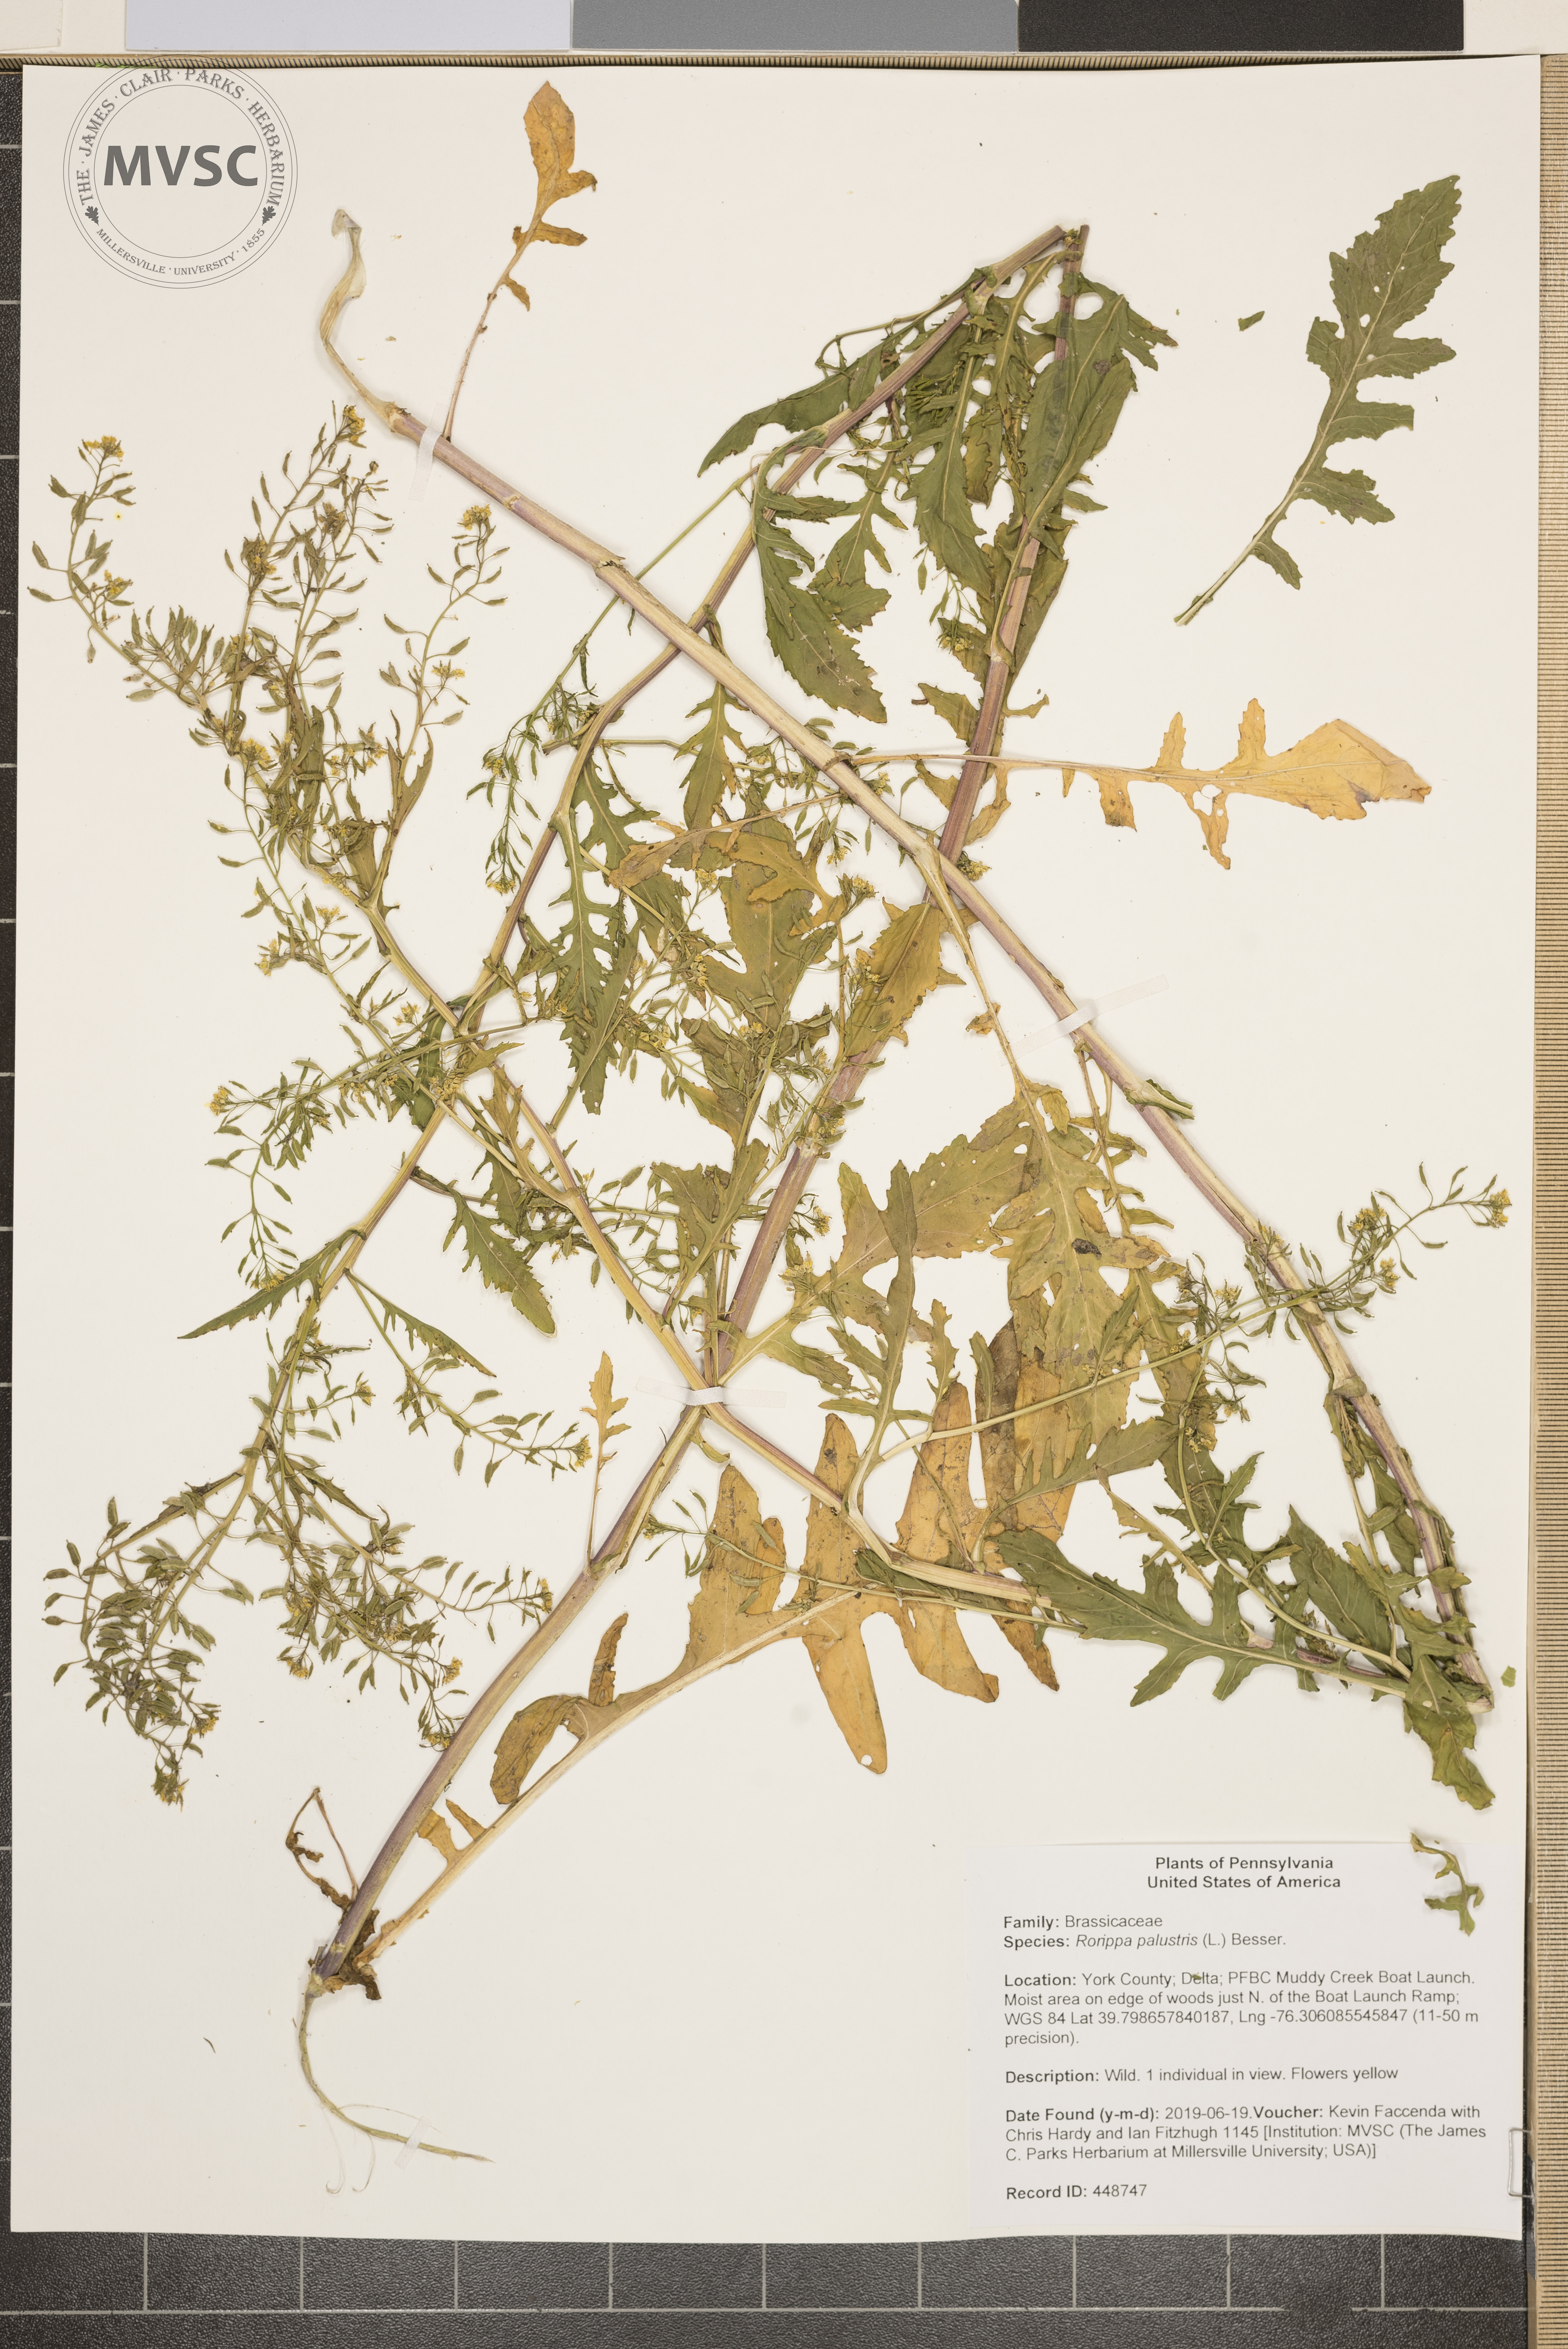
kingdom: Plantae
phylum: Tracheophyta
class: Magnoliopsida
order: Brassicales
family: Brassicaceae
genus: Rorippa
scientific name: Rorippa palustris
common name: Marsh yellow-cress
